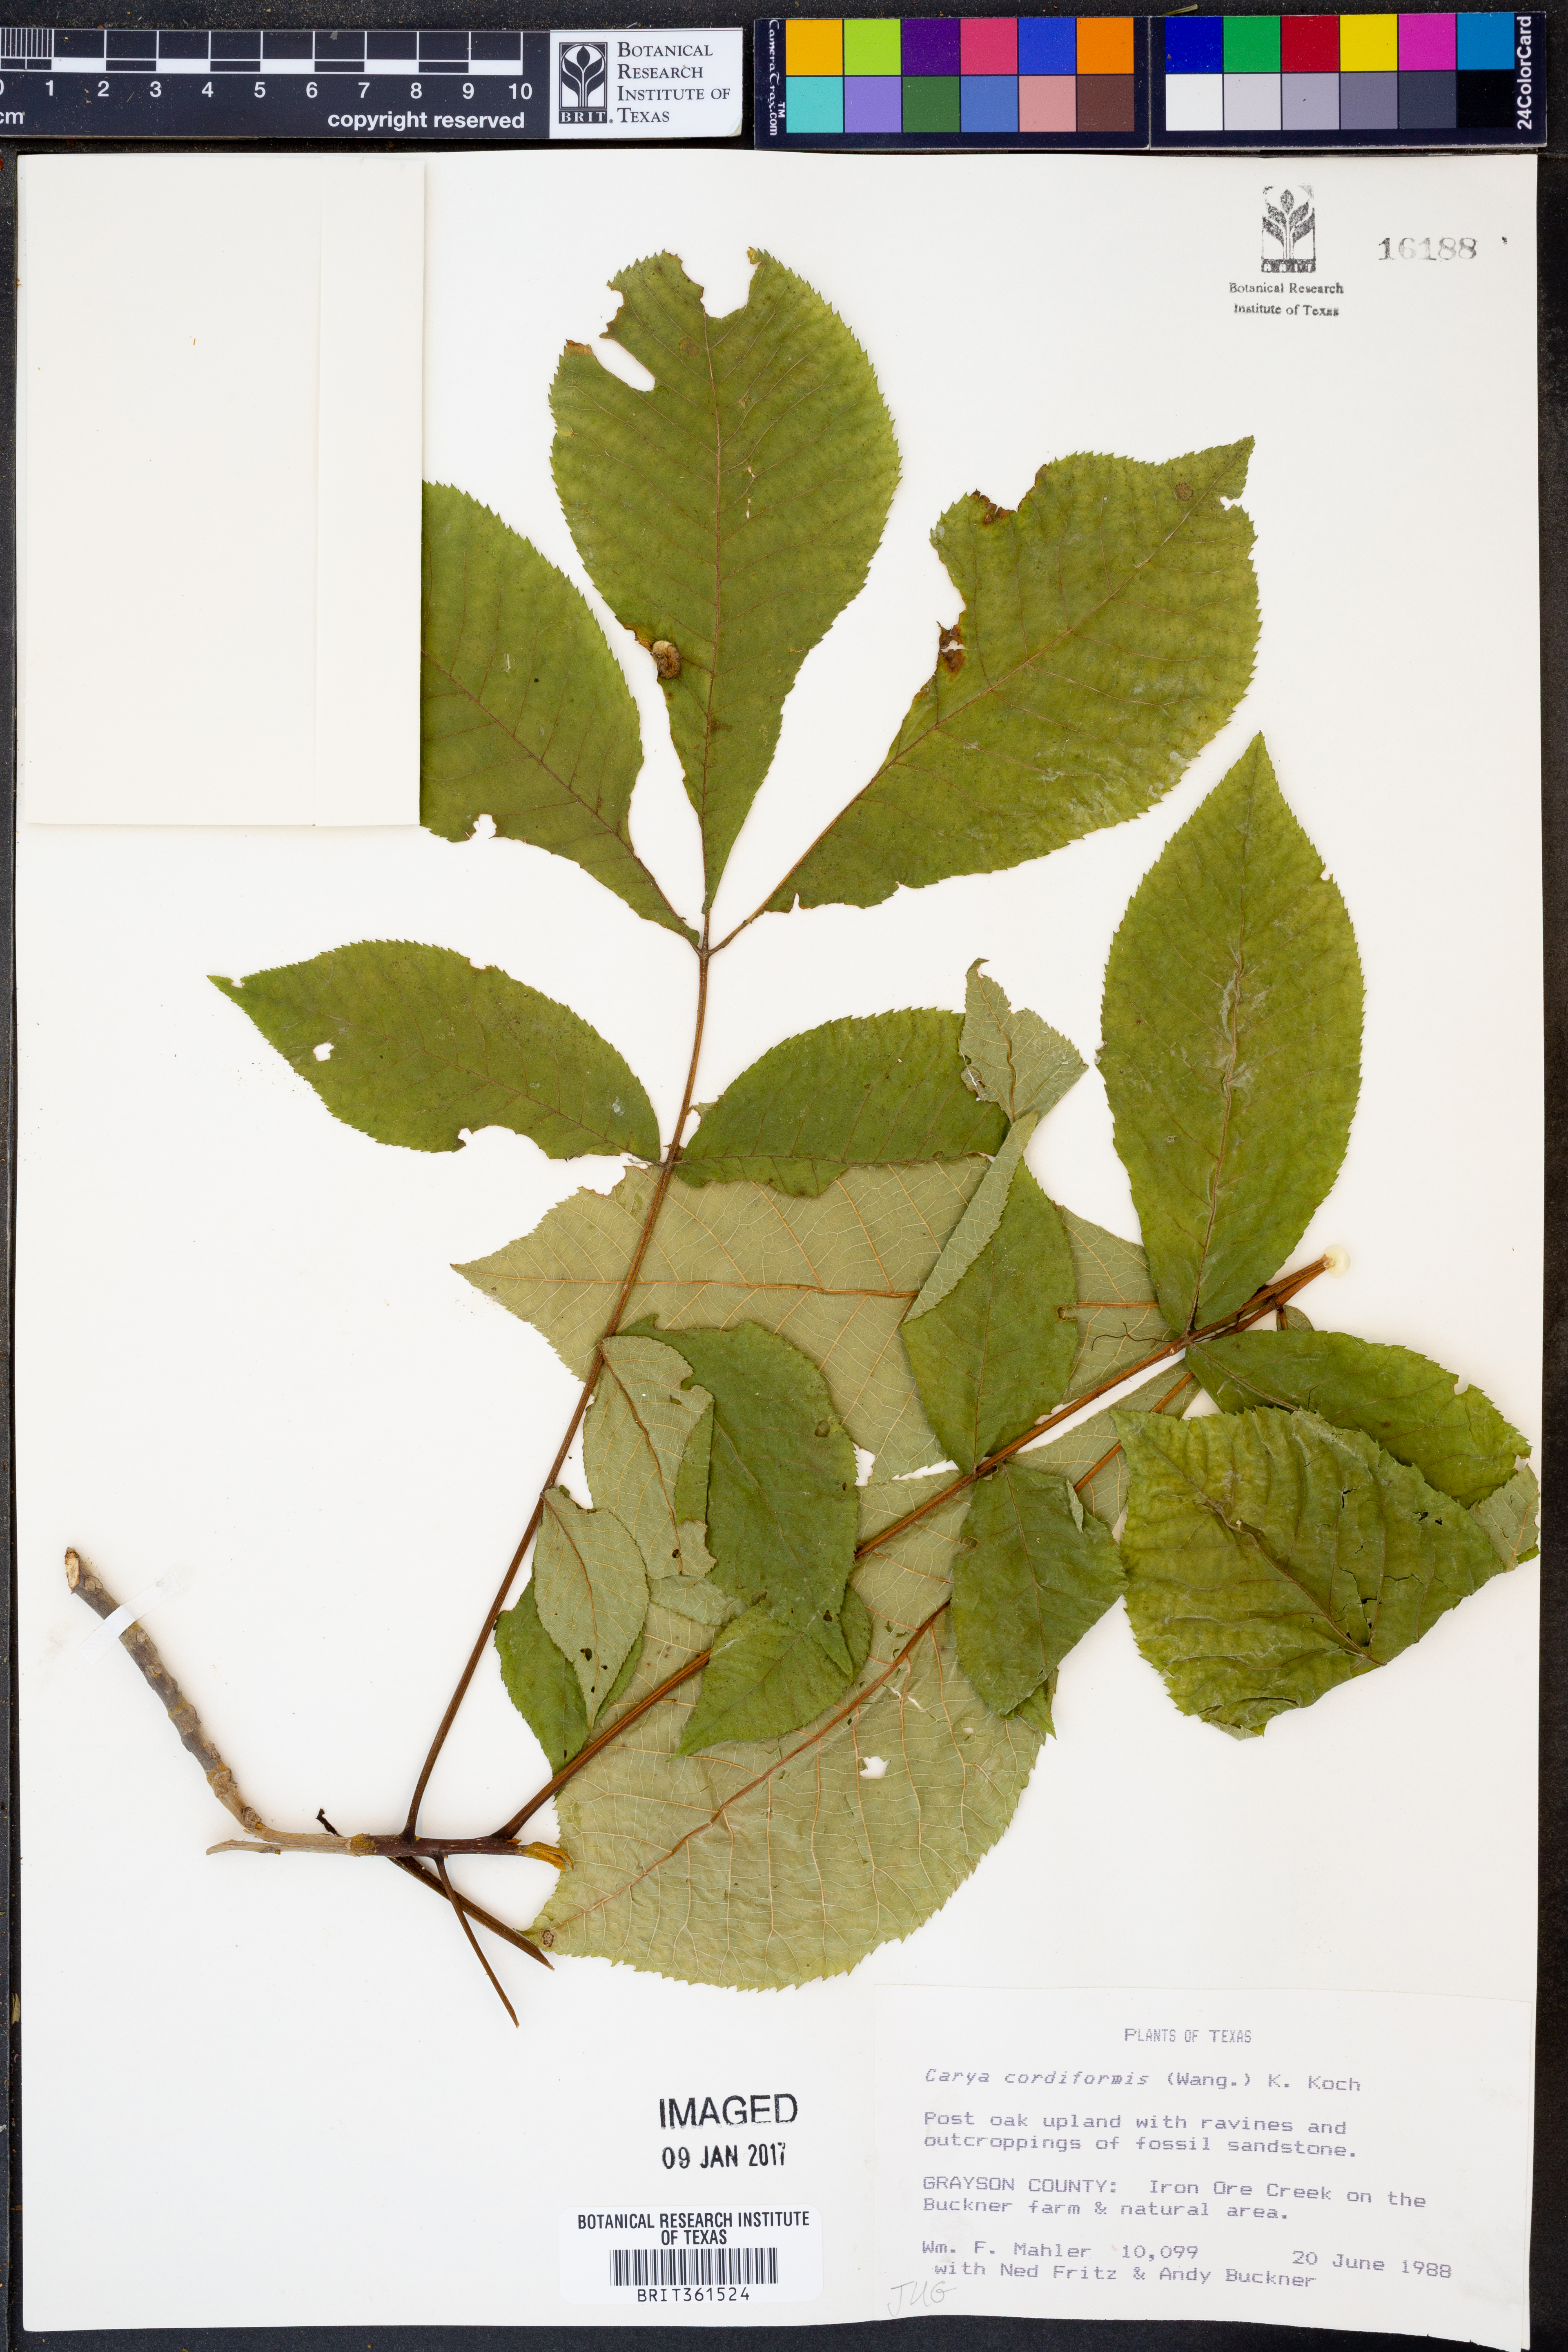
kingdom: Plantae
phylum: Tracheophyta
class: Magnoliopsida
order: Fagales
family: Juglandaceae
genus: Carya
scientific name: Carya cordiformis
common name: Bitternut hickory
